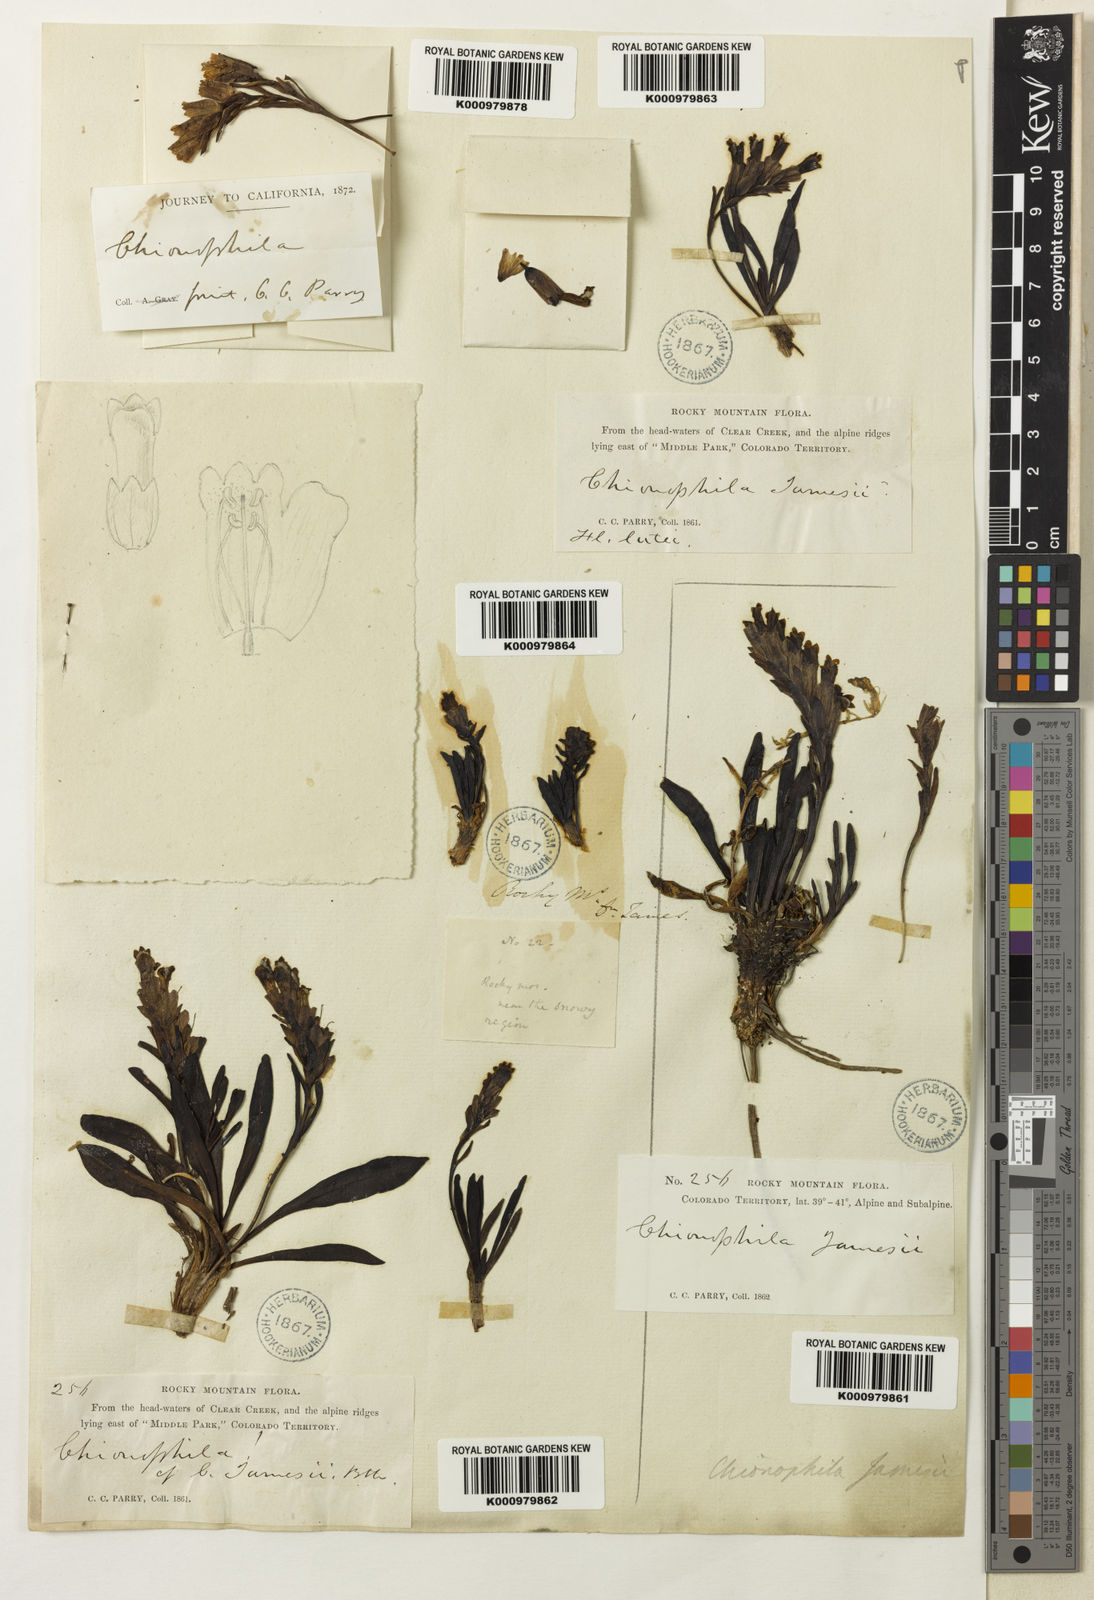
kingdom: Plantae
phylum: Tracheophyta
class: Magnoliopsida
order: Lamiales
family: Plantaginaceae
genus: Chionophila
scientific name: Chionophila jamesii
